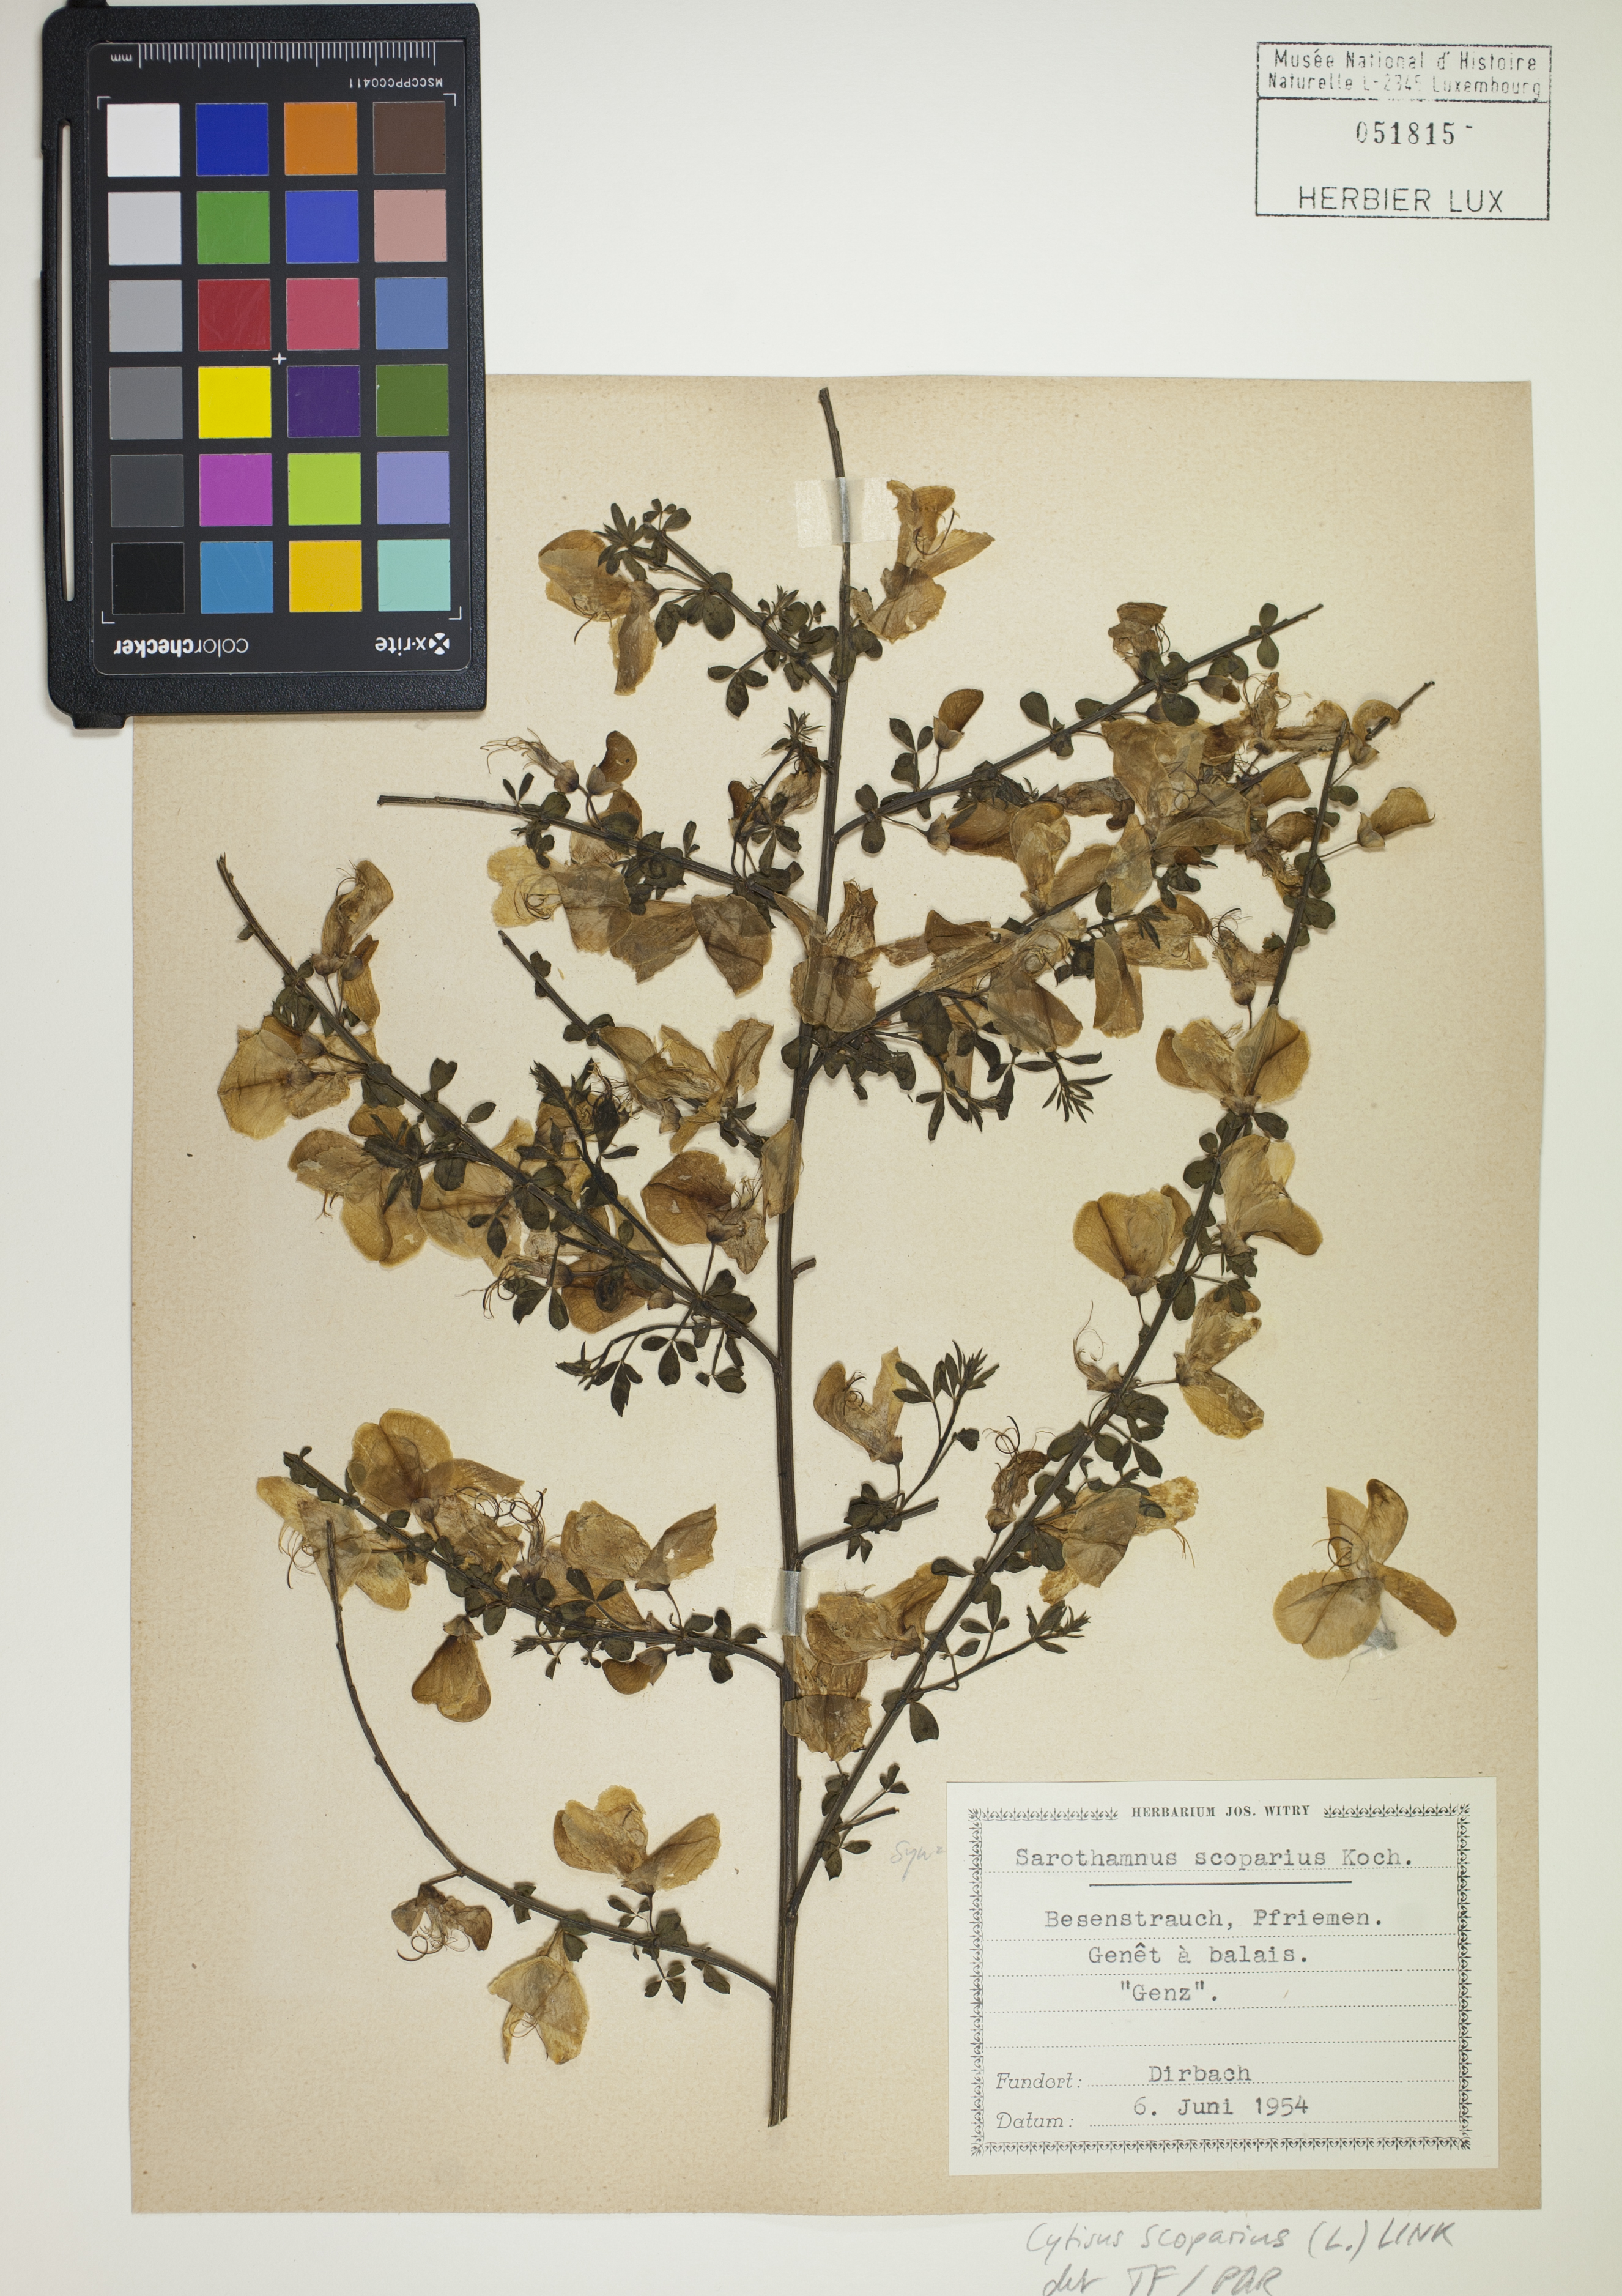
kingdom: Plantae
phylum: Tracheophyta
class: Magnoliopsida
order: Fabales
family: Fabaceae
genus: Cytisus
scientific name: Cytisus scoparius
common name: Scotch broom
